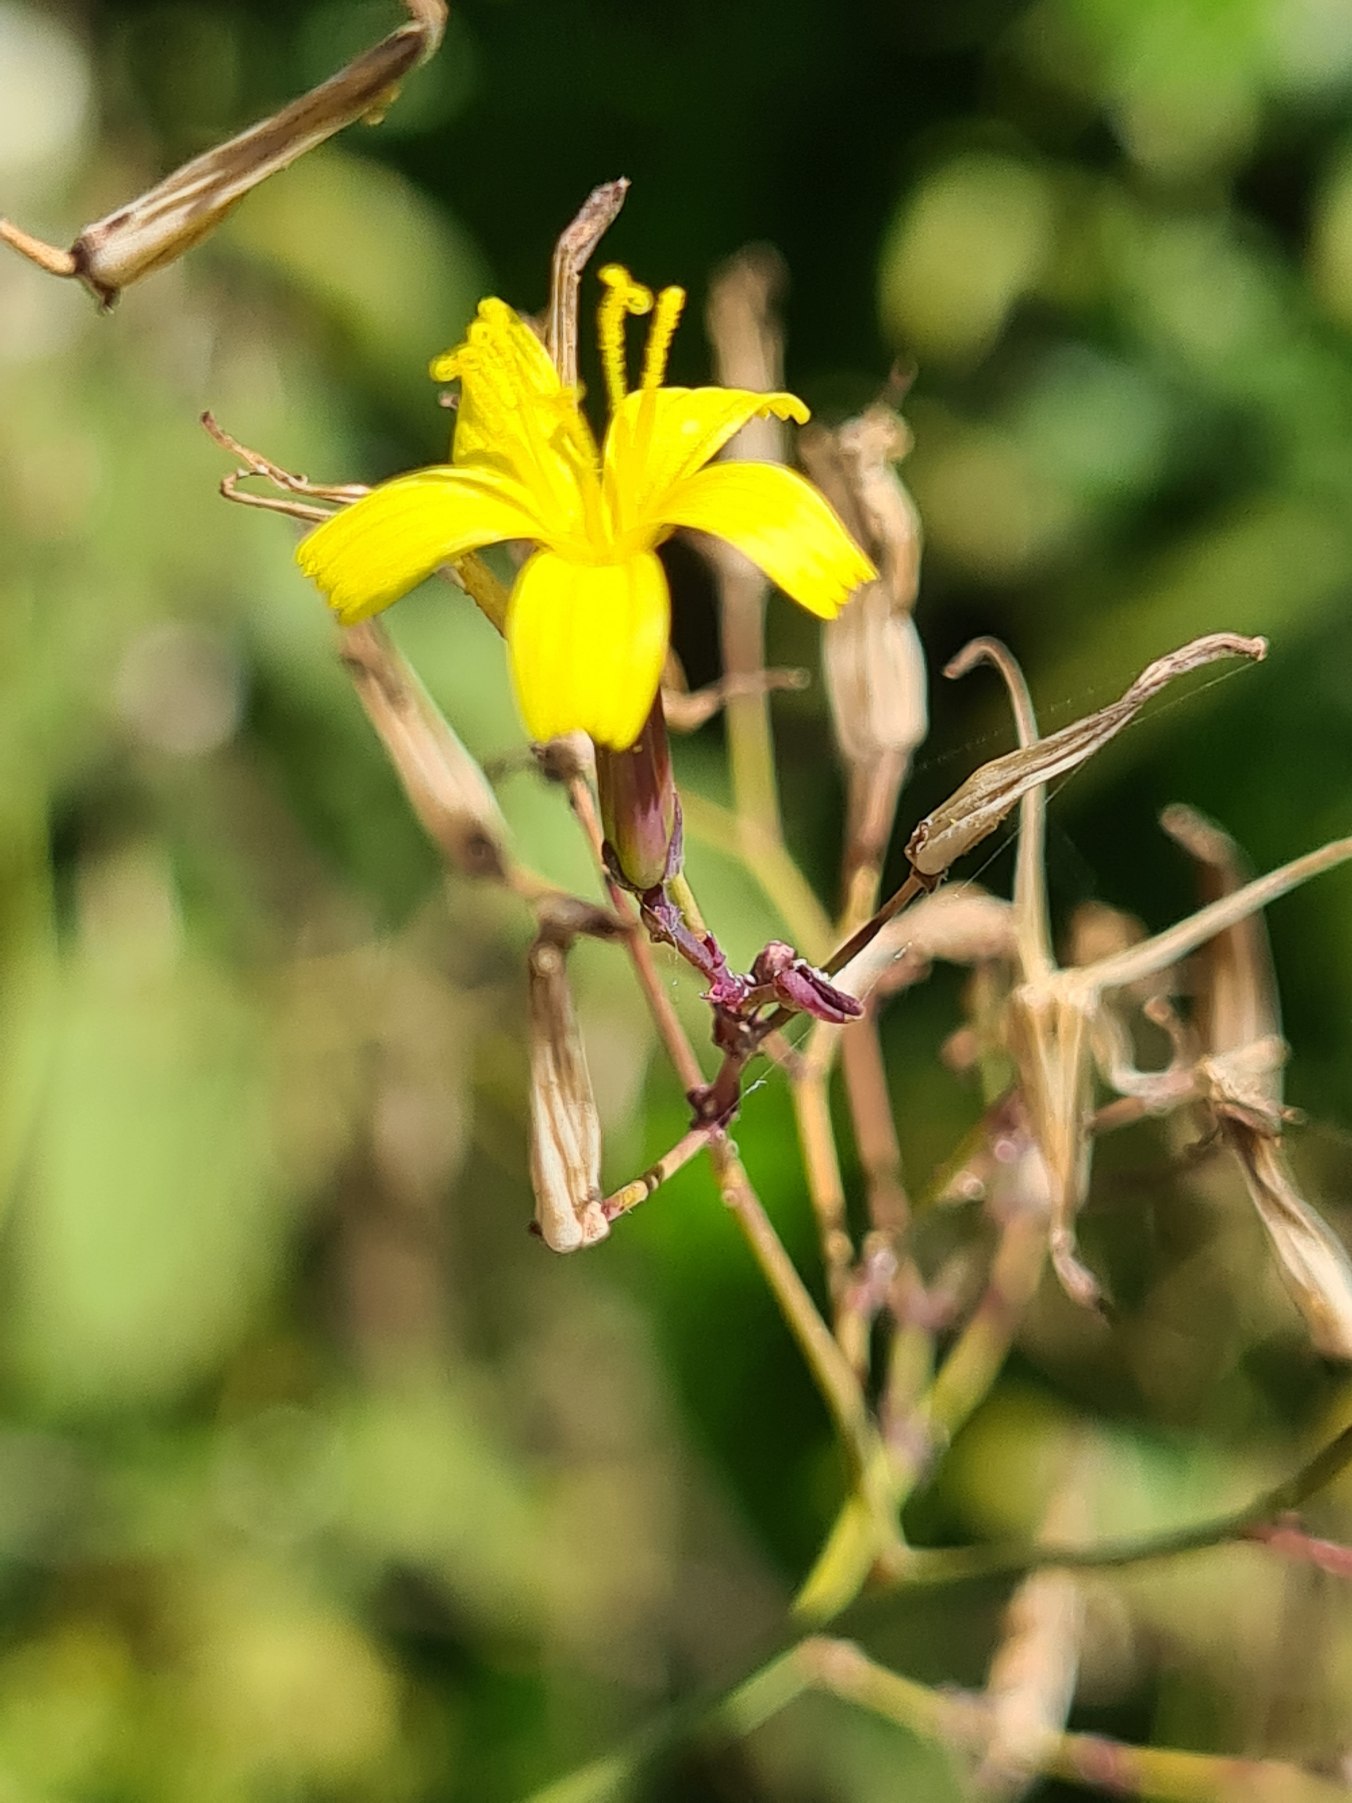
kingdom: Plantae
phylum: Tracheophyta
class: Magnoliopsida
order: Asterales
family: Asteraceae
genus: Mycelis
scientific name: Mycelis muralis
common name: Skov-salat
